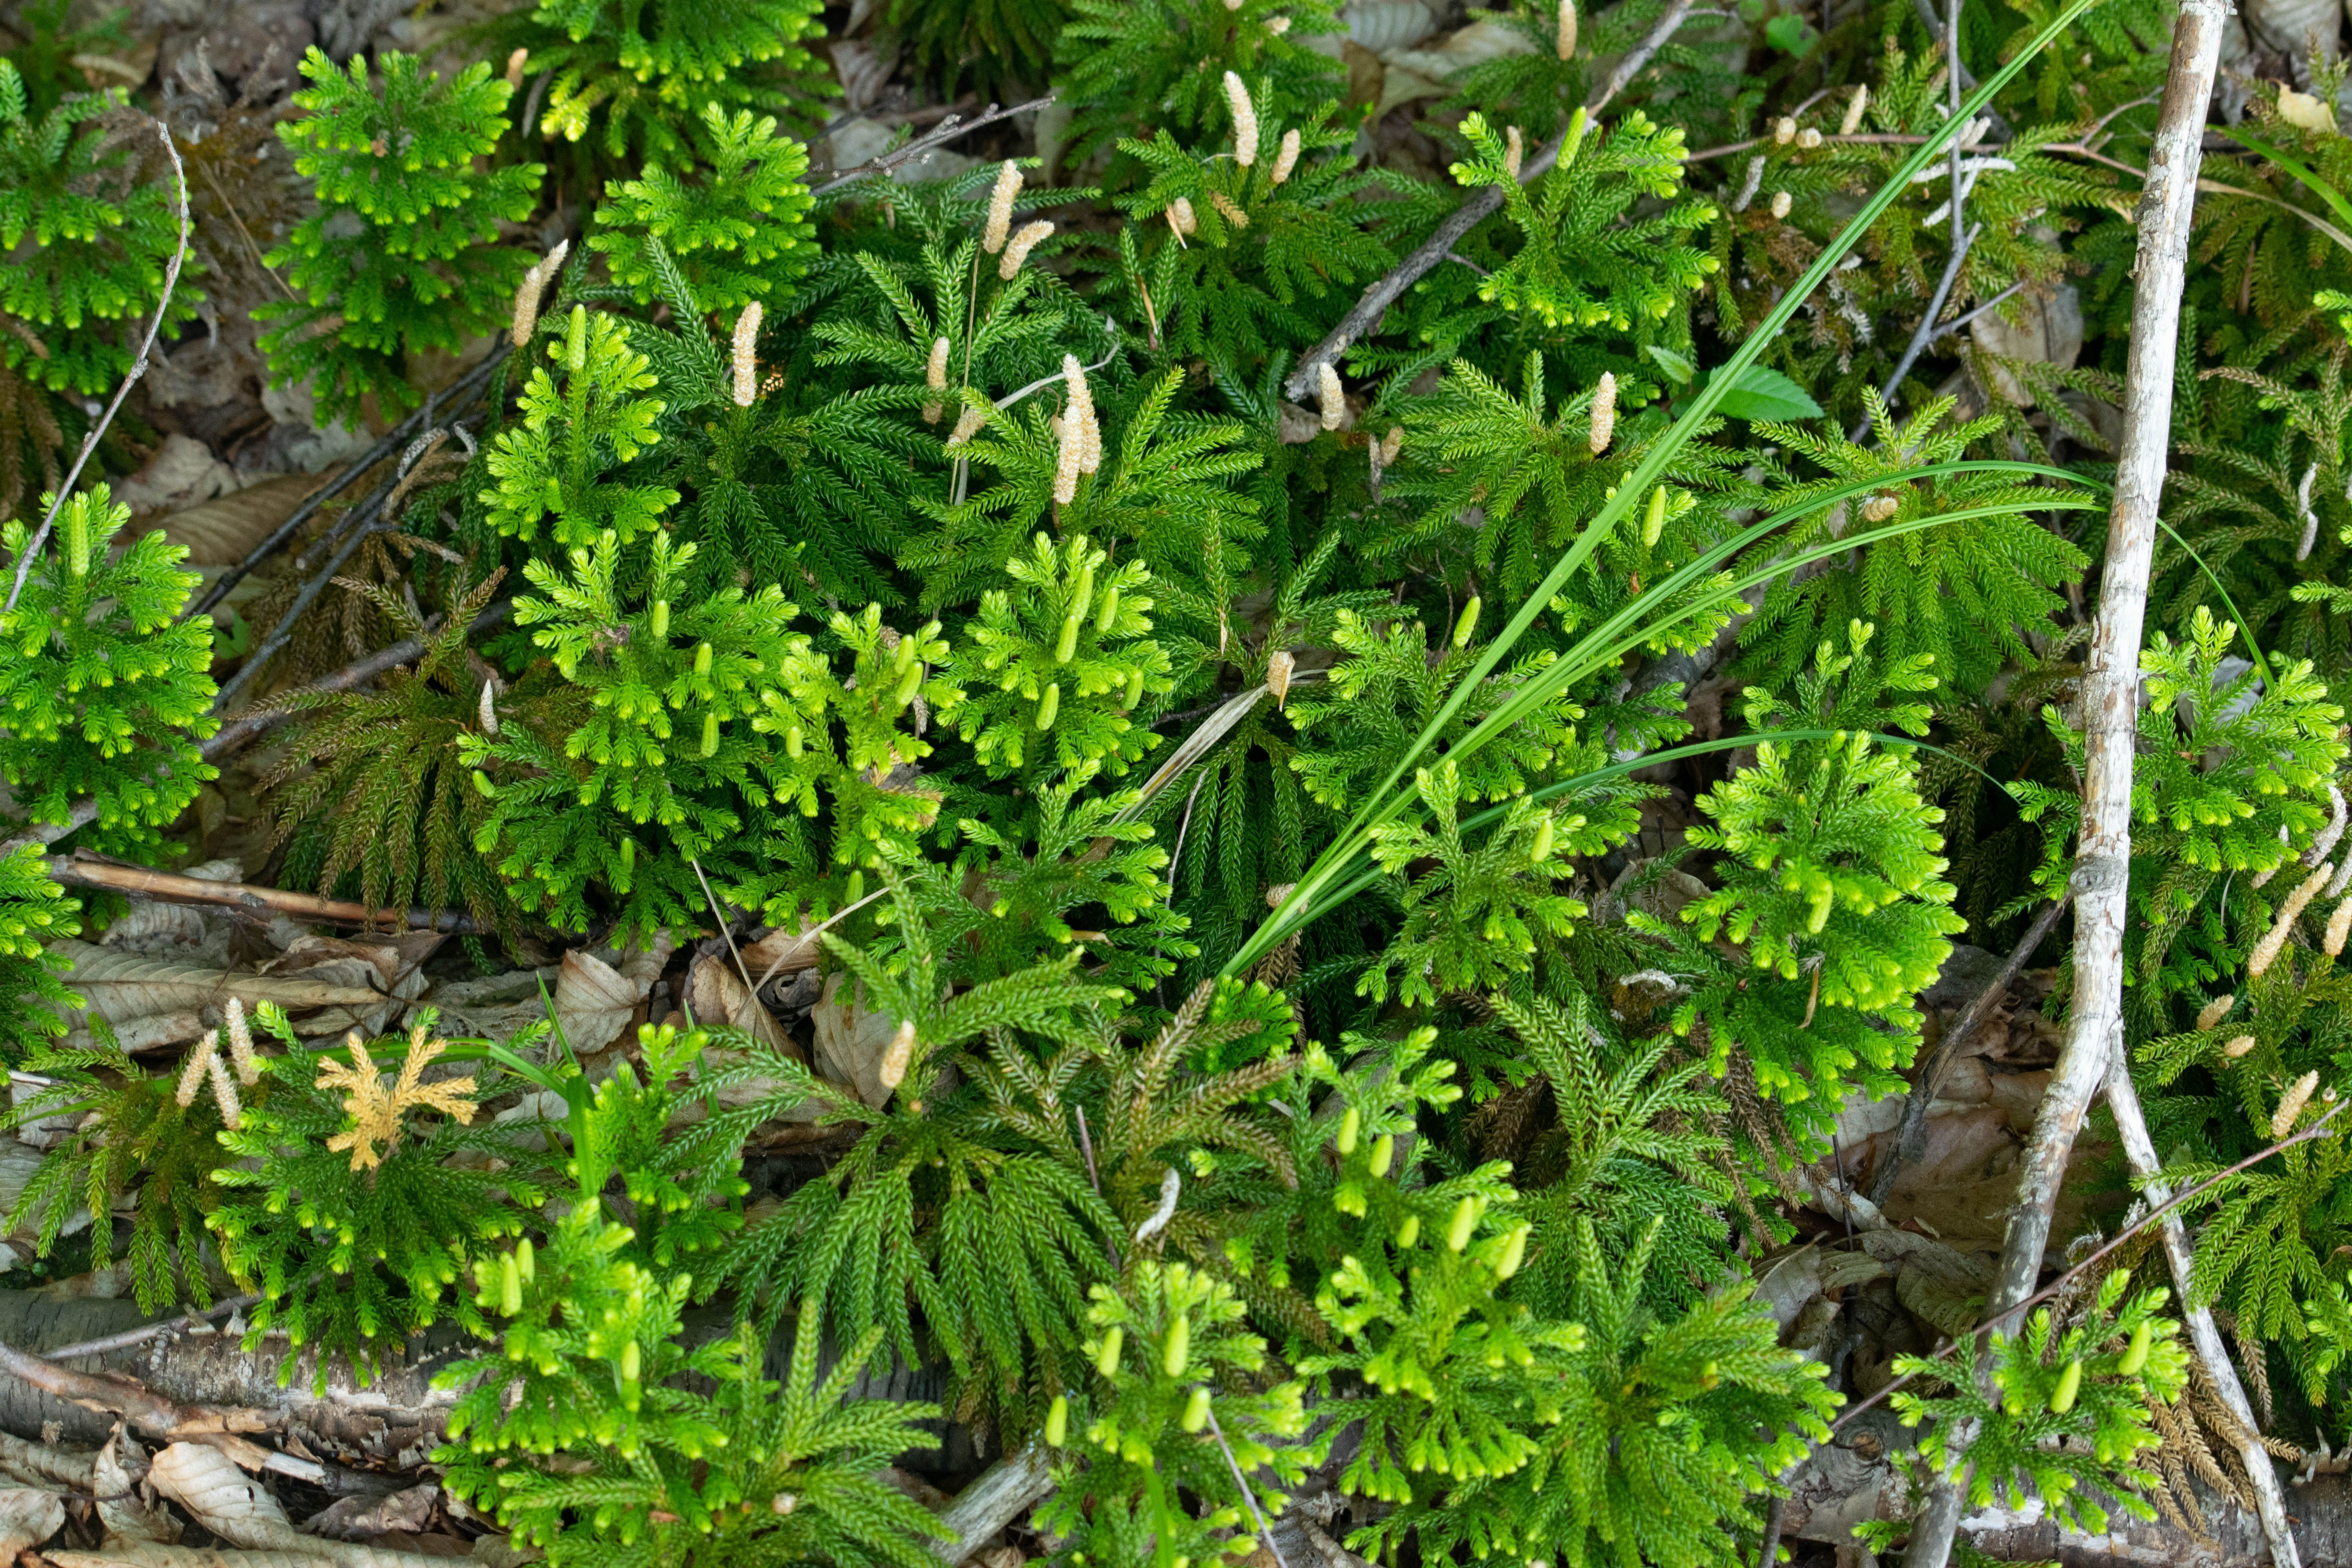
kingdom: Plantae
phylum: Tracheophyta
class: Lycopodiopsida
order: Lycopodiales
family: Lycopodiaceae
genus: Dendrolycopodium
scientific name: Dendrolycopodium dendroideum
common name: Northern tree-clubmoss
